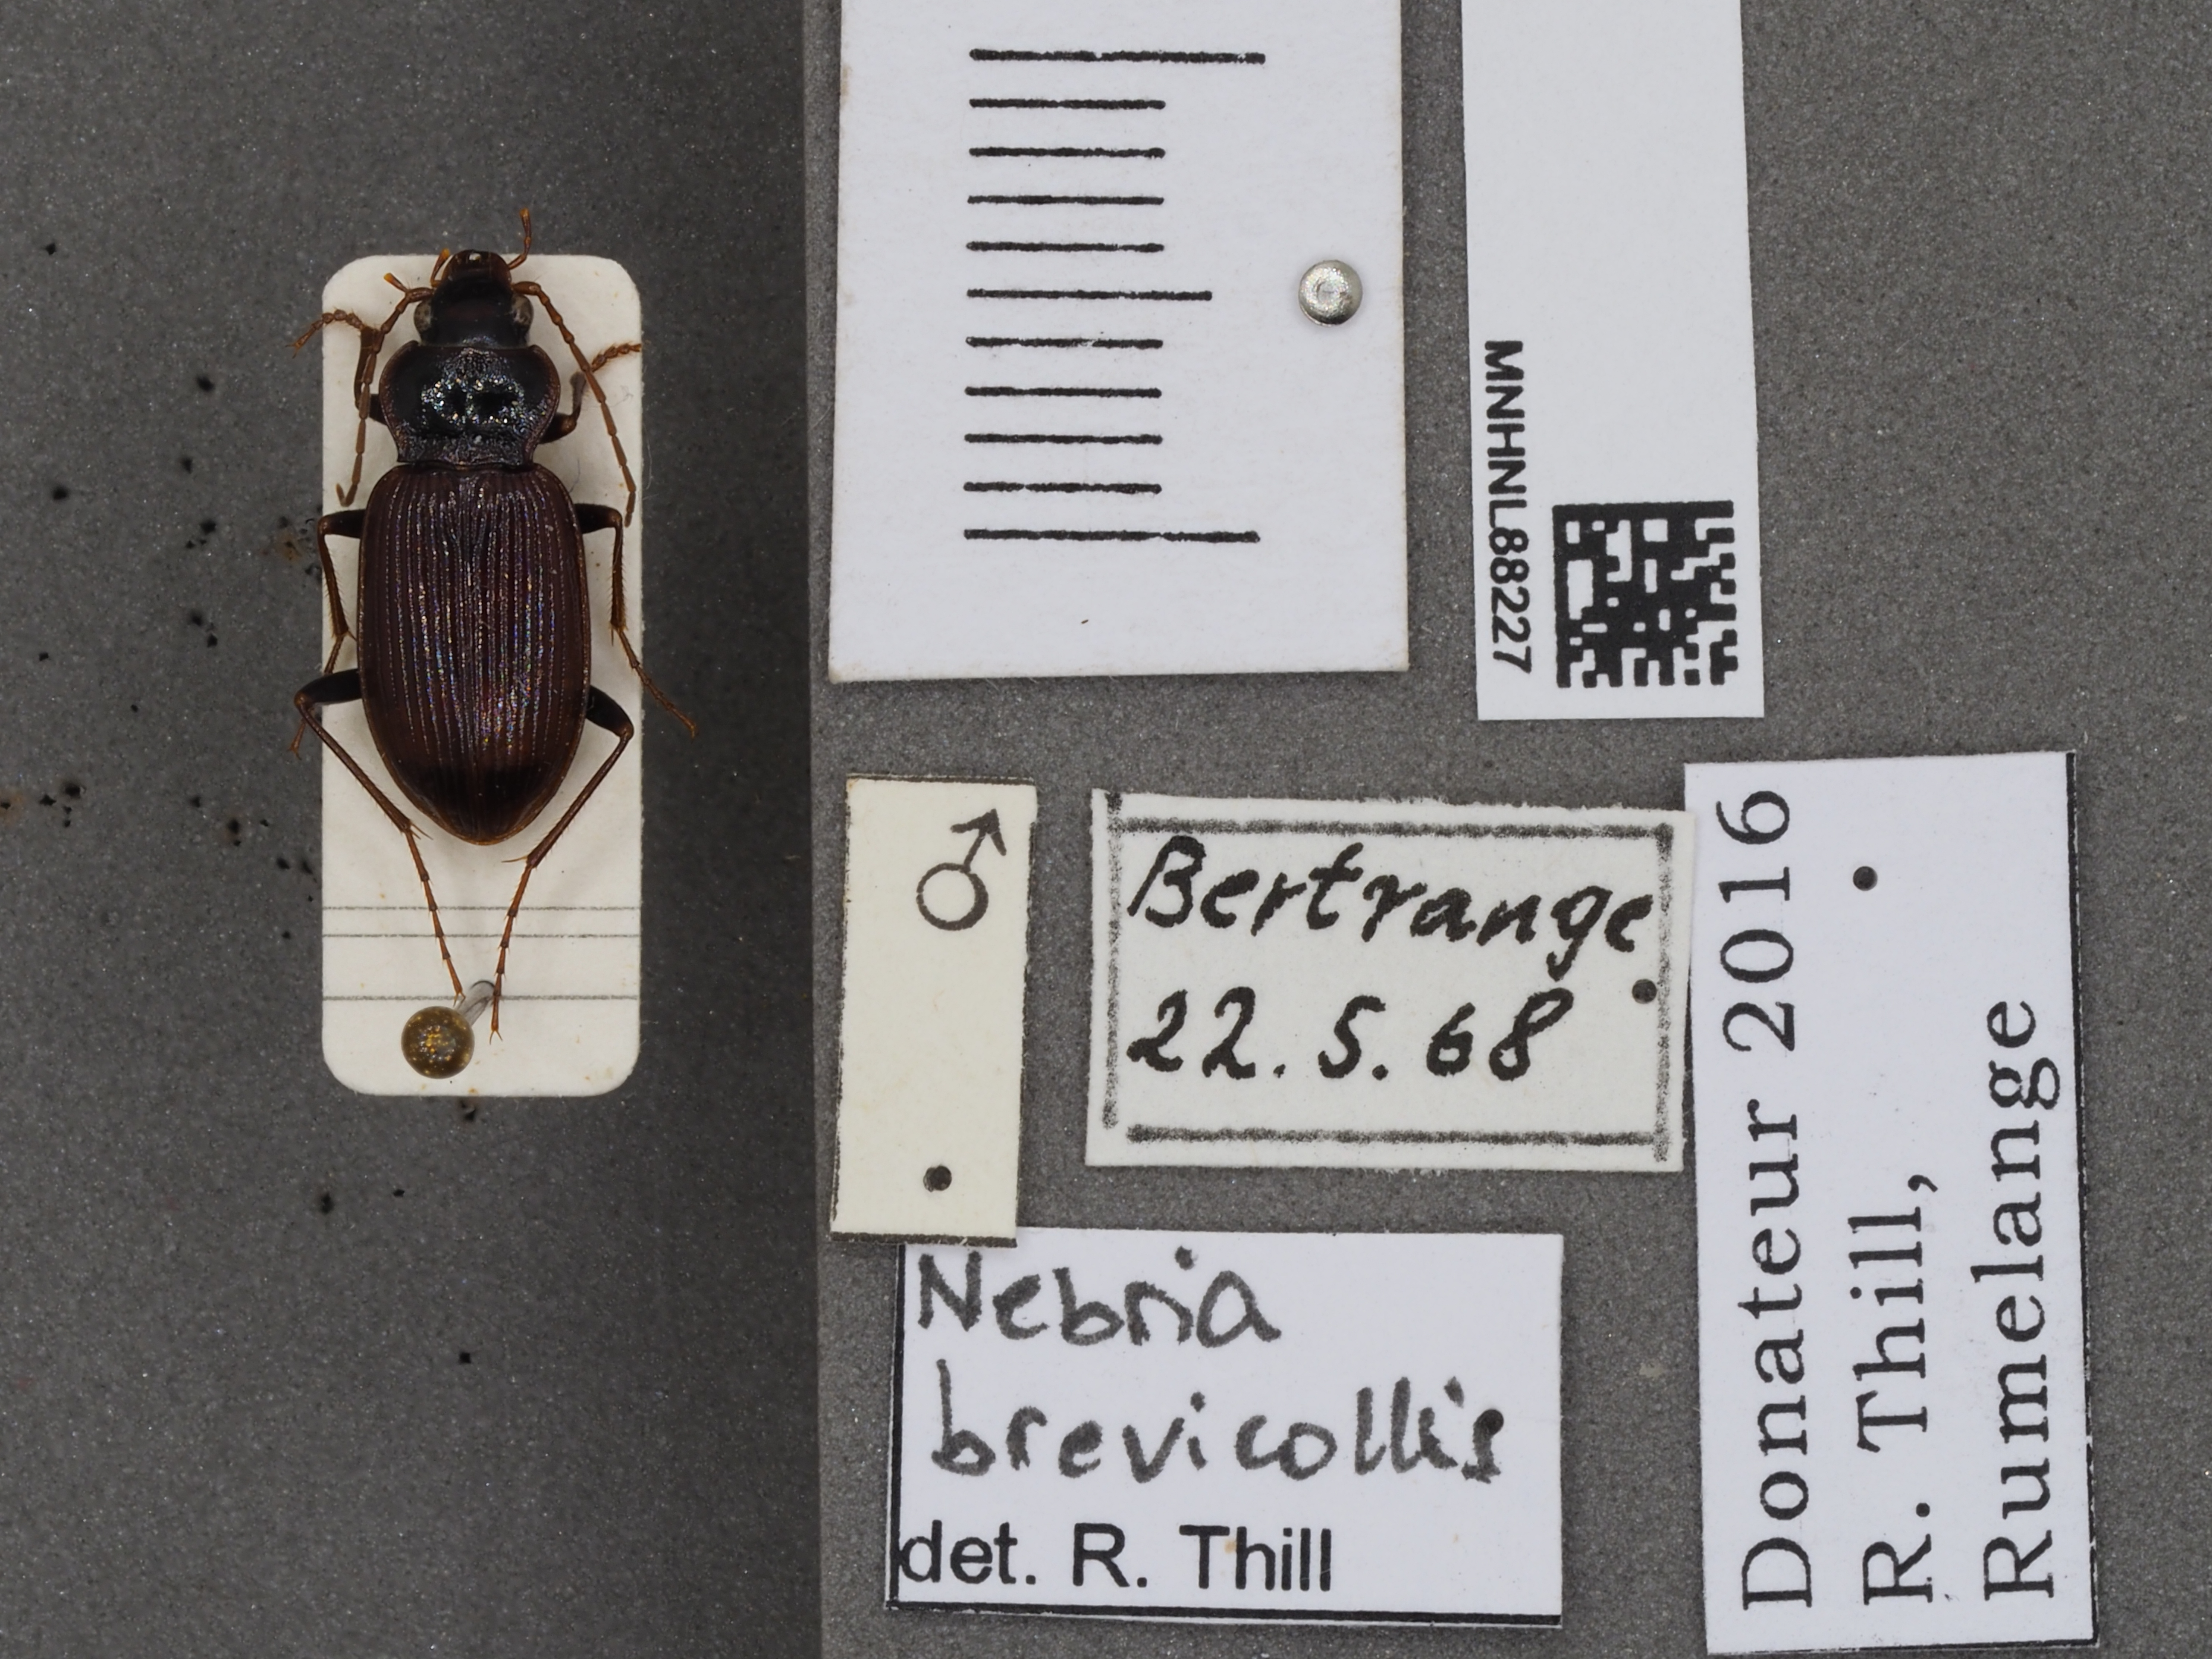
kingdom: Animalia
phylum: Arthropoda
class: Insecta
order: Coleoptera
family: Carabidae
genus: Nebria
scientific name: Nebria brevicollis
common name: Short-necked gazelle beetle
